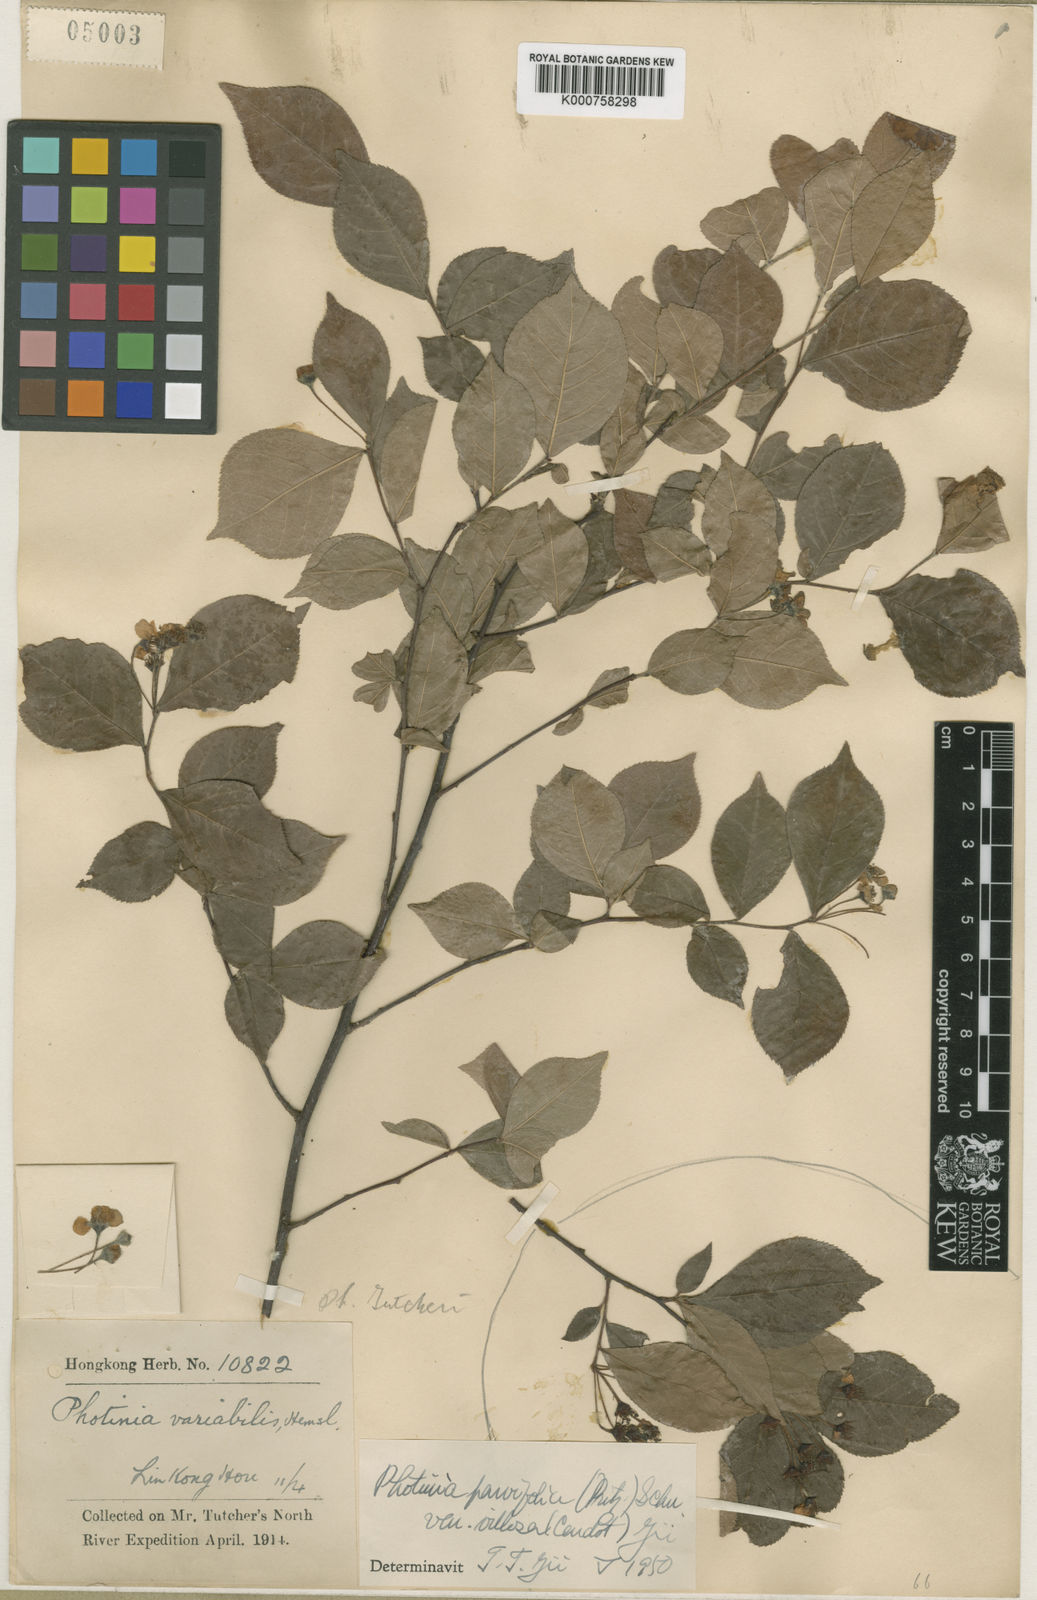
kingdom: Plantae
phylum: Tracheophyta
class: Magnoliopsida
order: Rosales
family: Rosaceae
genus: Pourthiaea
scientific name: Pourthiaea parviflora
